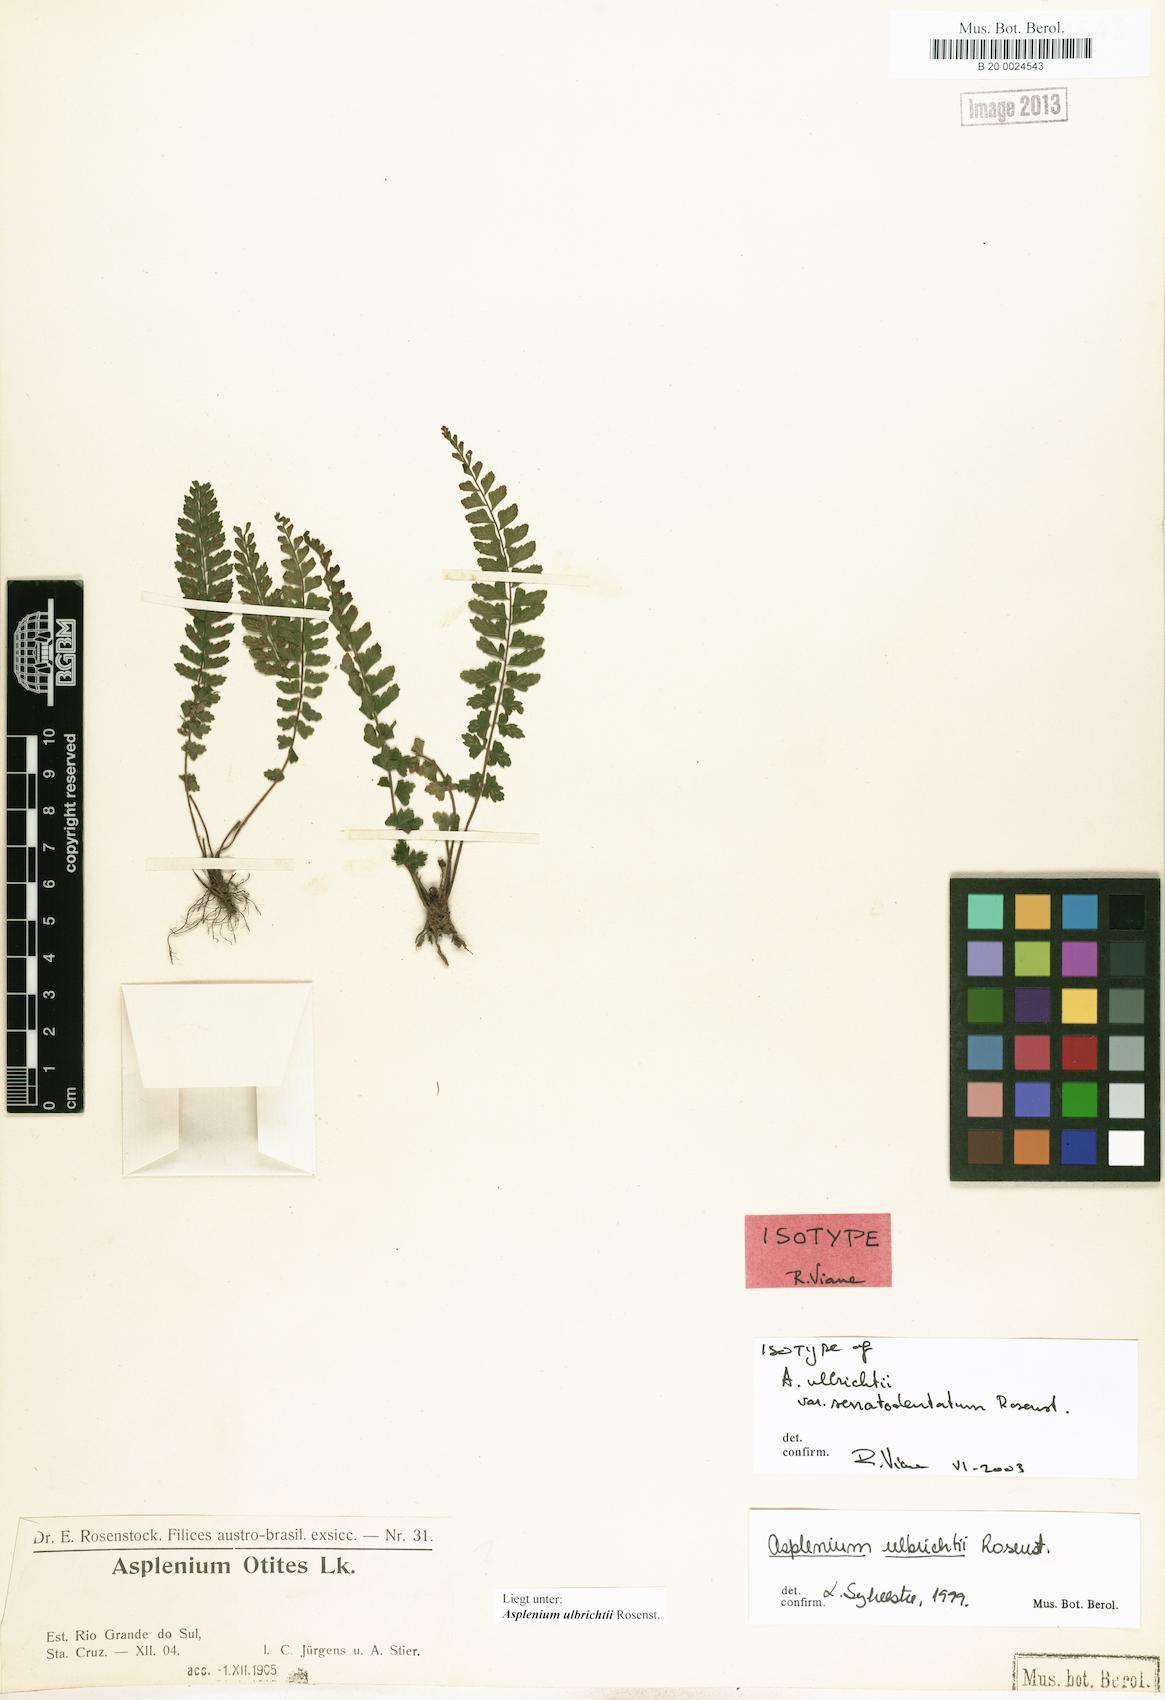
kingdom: Plantae
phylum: Tracheophyta
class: Polypodiopsida
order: Polypodiales
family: Aspleniaceae
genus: Asplenium
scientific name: Asplenium ulbrichtii
